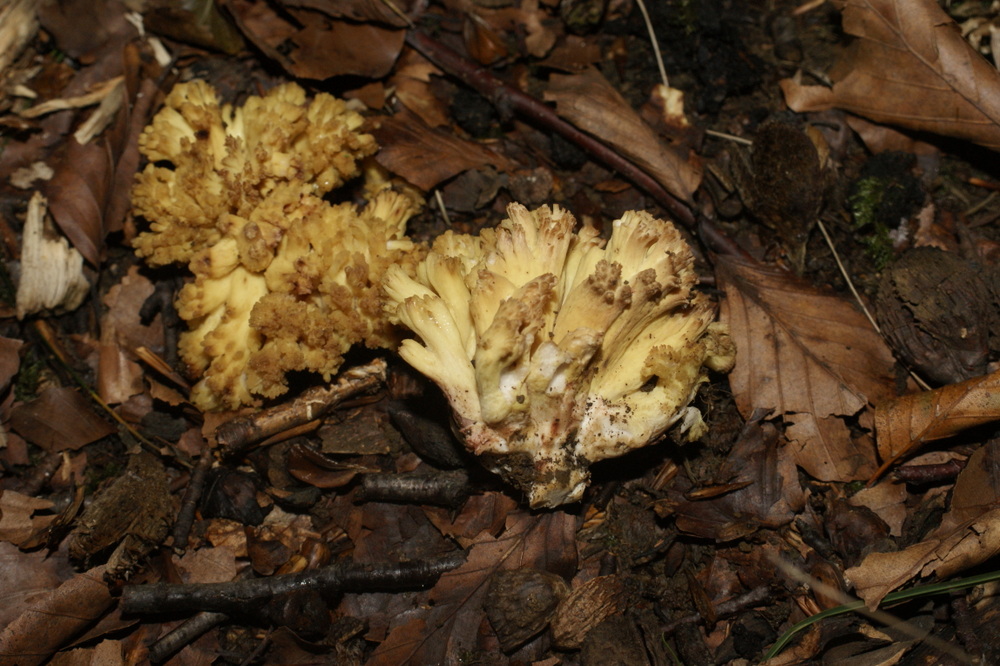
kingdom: Fungi
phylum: Basidiomycota
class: Agaricomycetes
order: Gomphales
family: Gomphaceae
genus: Ramaria
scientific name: Ramaria sanguinea
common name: blodplettet koralsvamp
